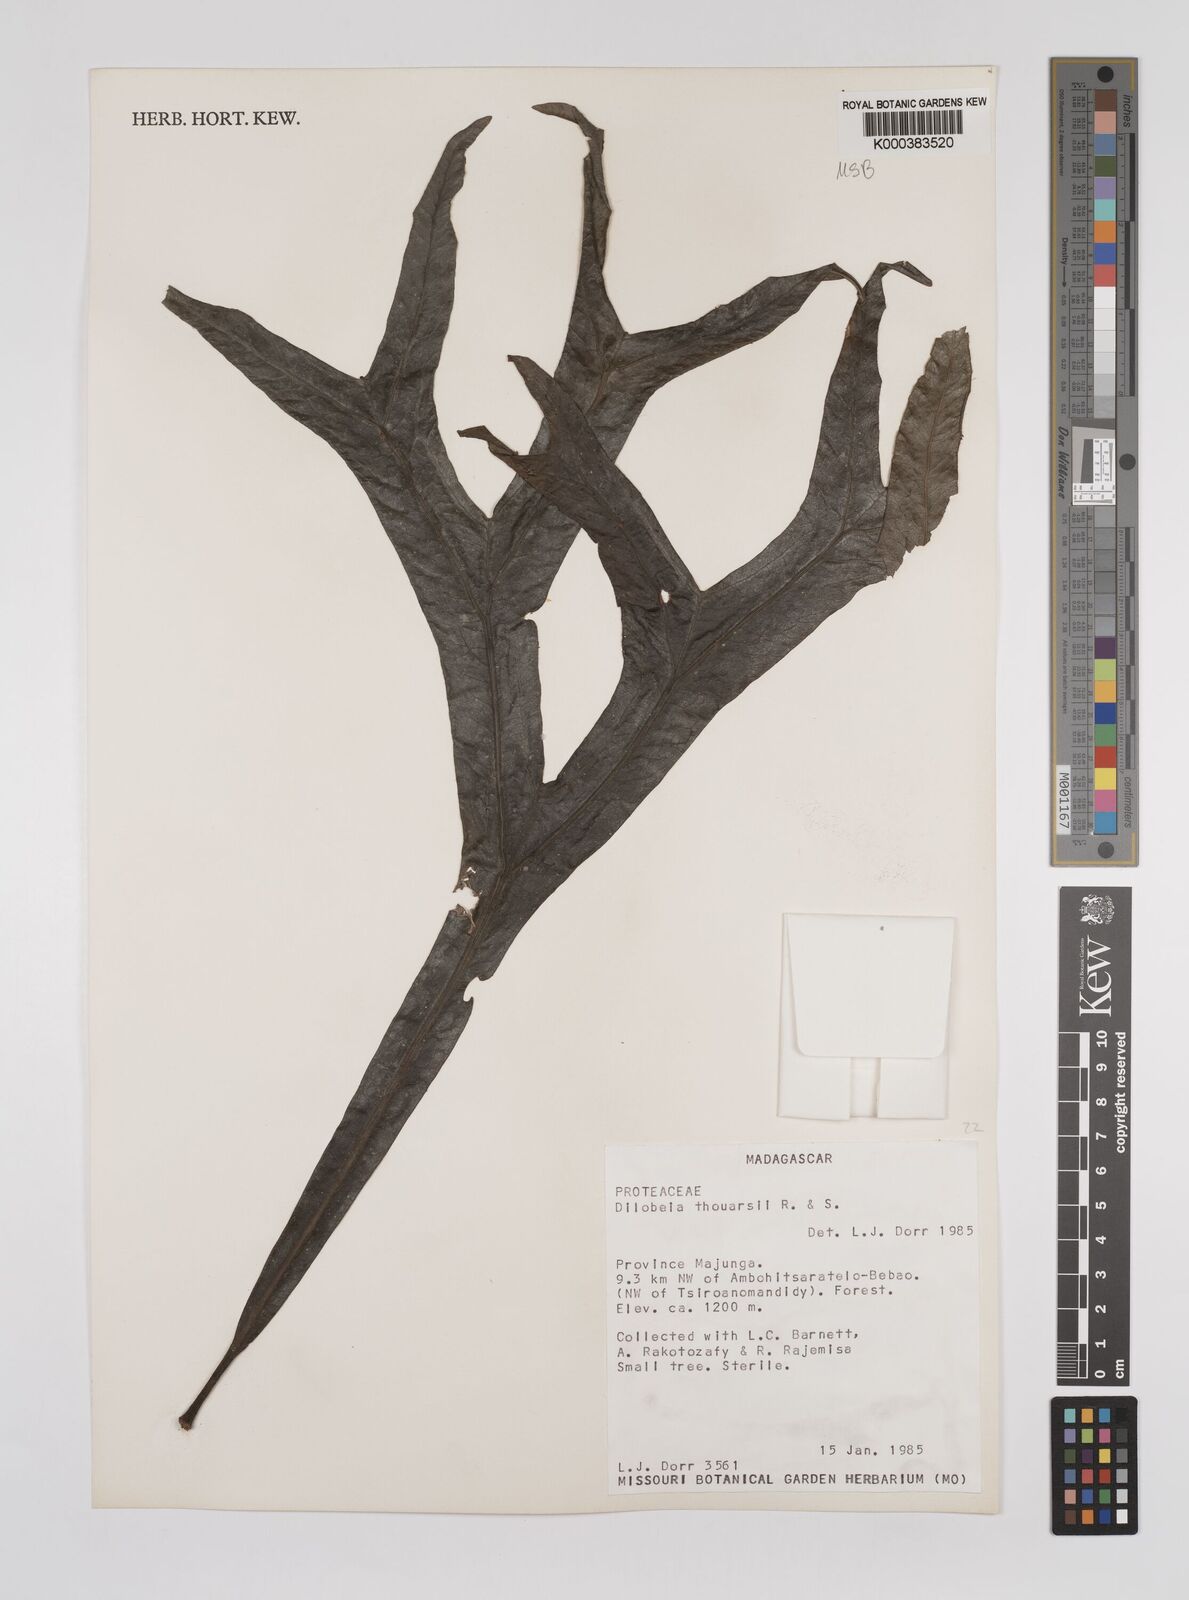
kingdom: Plantae
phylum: Tracheophyta
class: Magnoliopsida
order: Proteales
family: Proteaceae
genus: Dilobeia
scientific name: Dilobeia thouarsii
